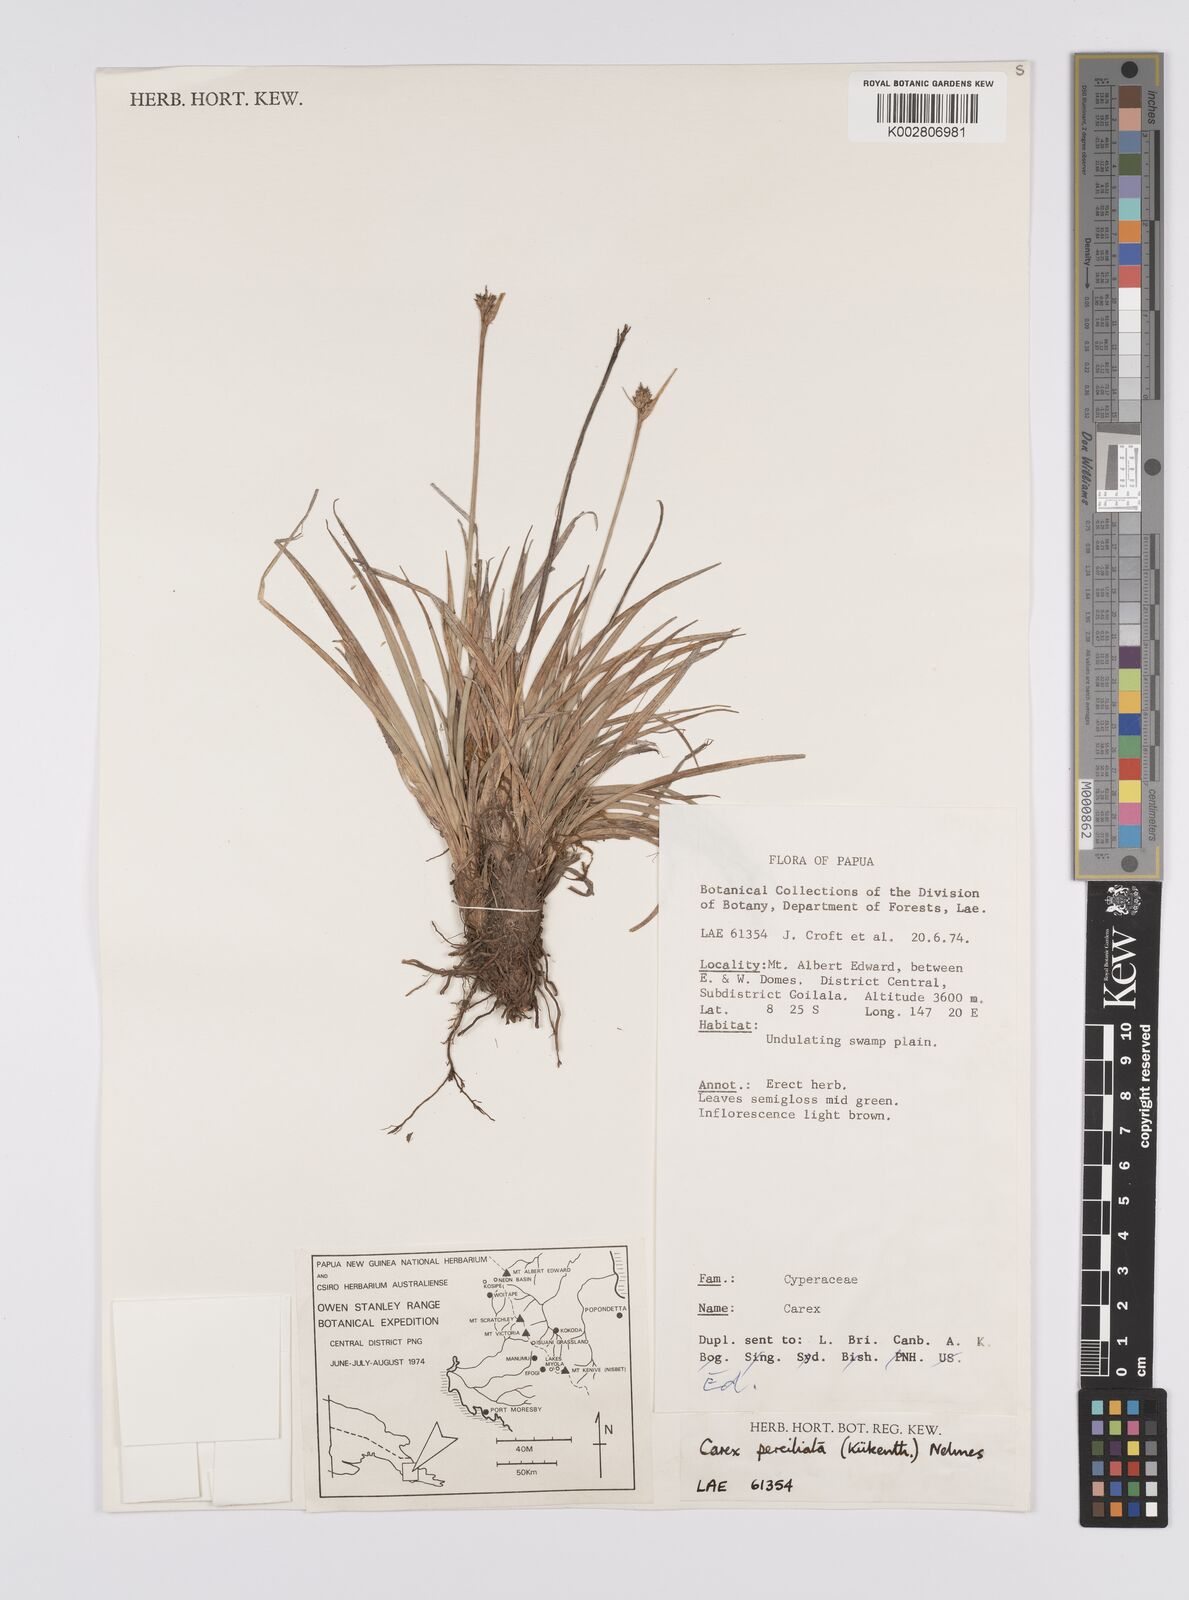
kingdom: Plantae
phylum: Tracheophyta
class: Liliopsida
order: Poales
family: Cyperaceae
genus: Carex
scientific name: Carex breviculmis
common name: Asian shortstem sedge
